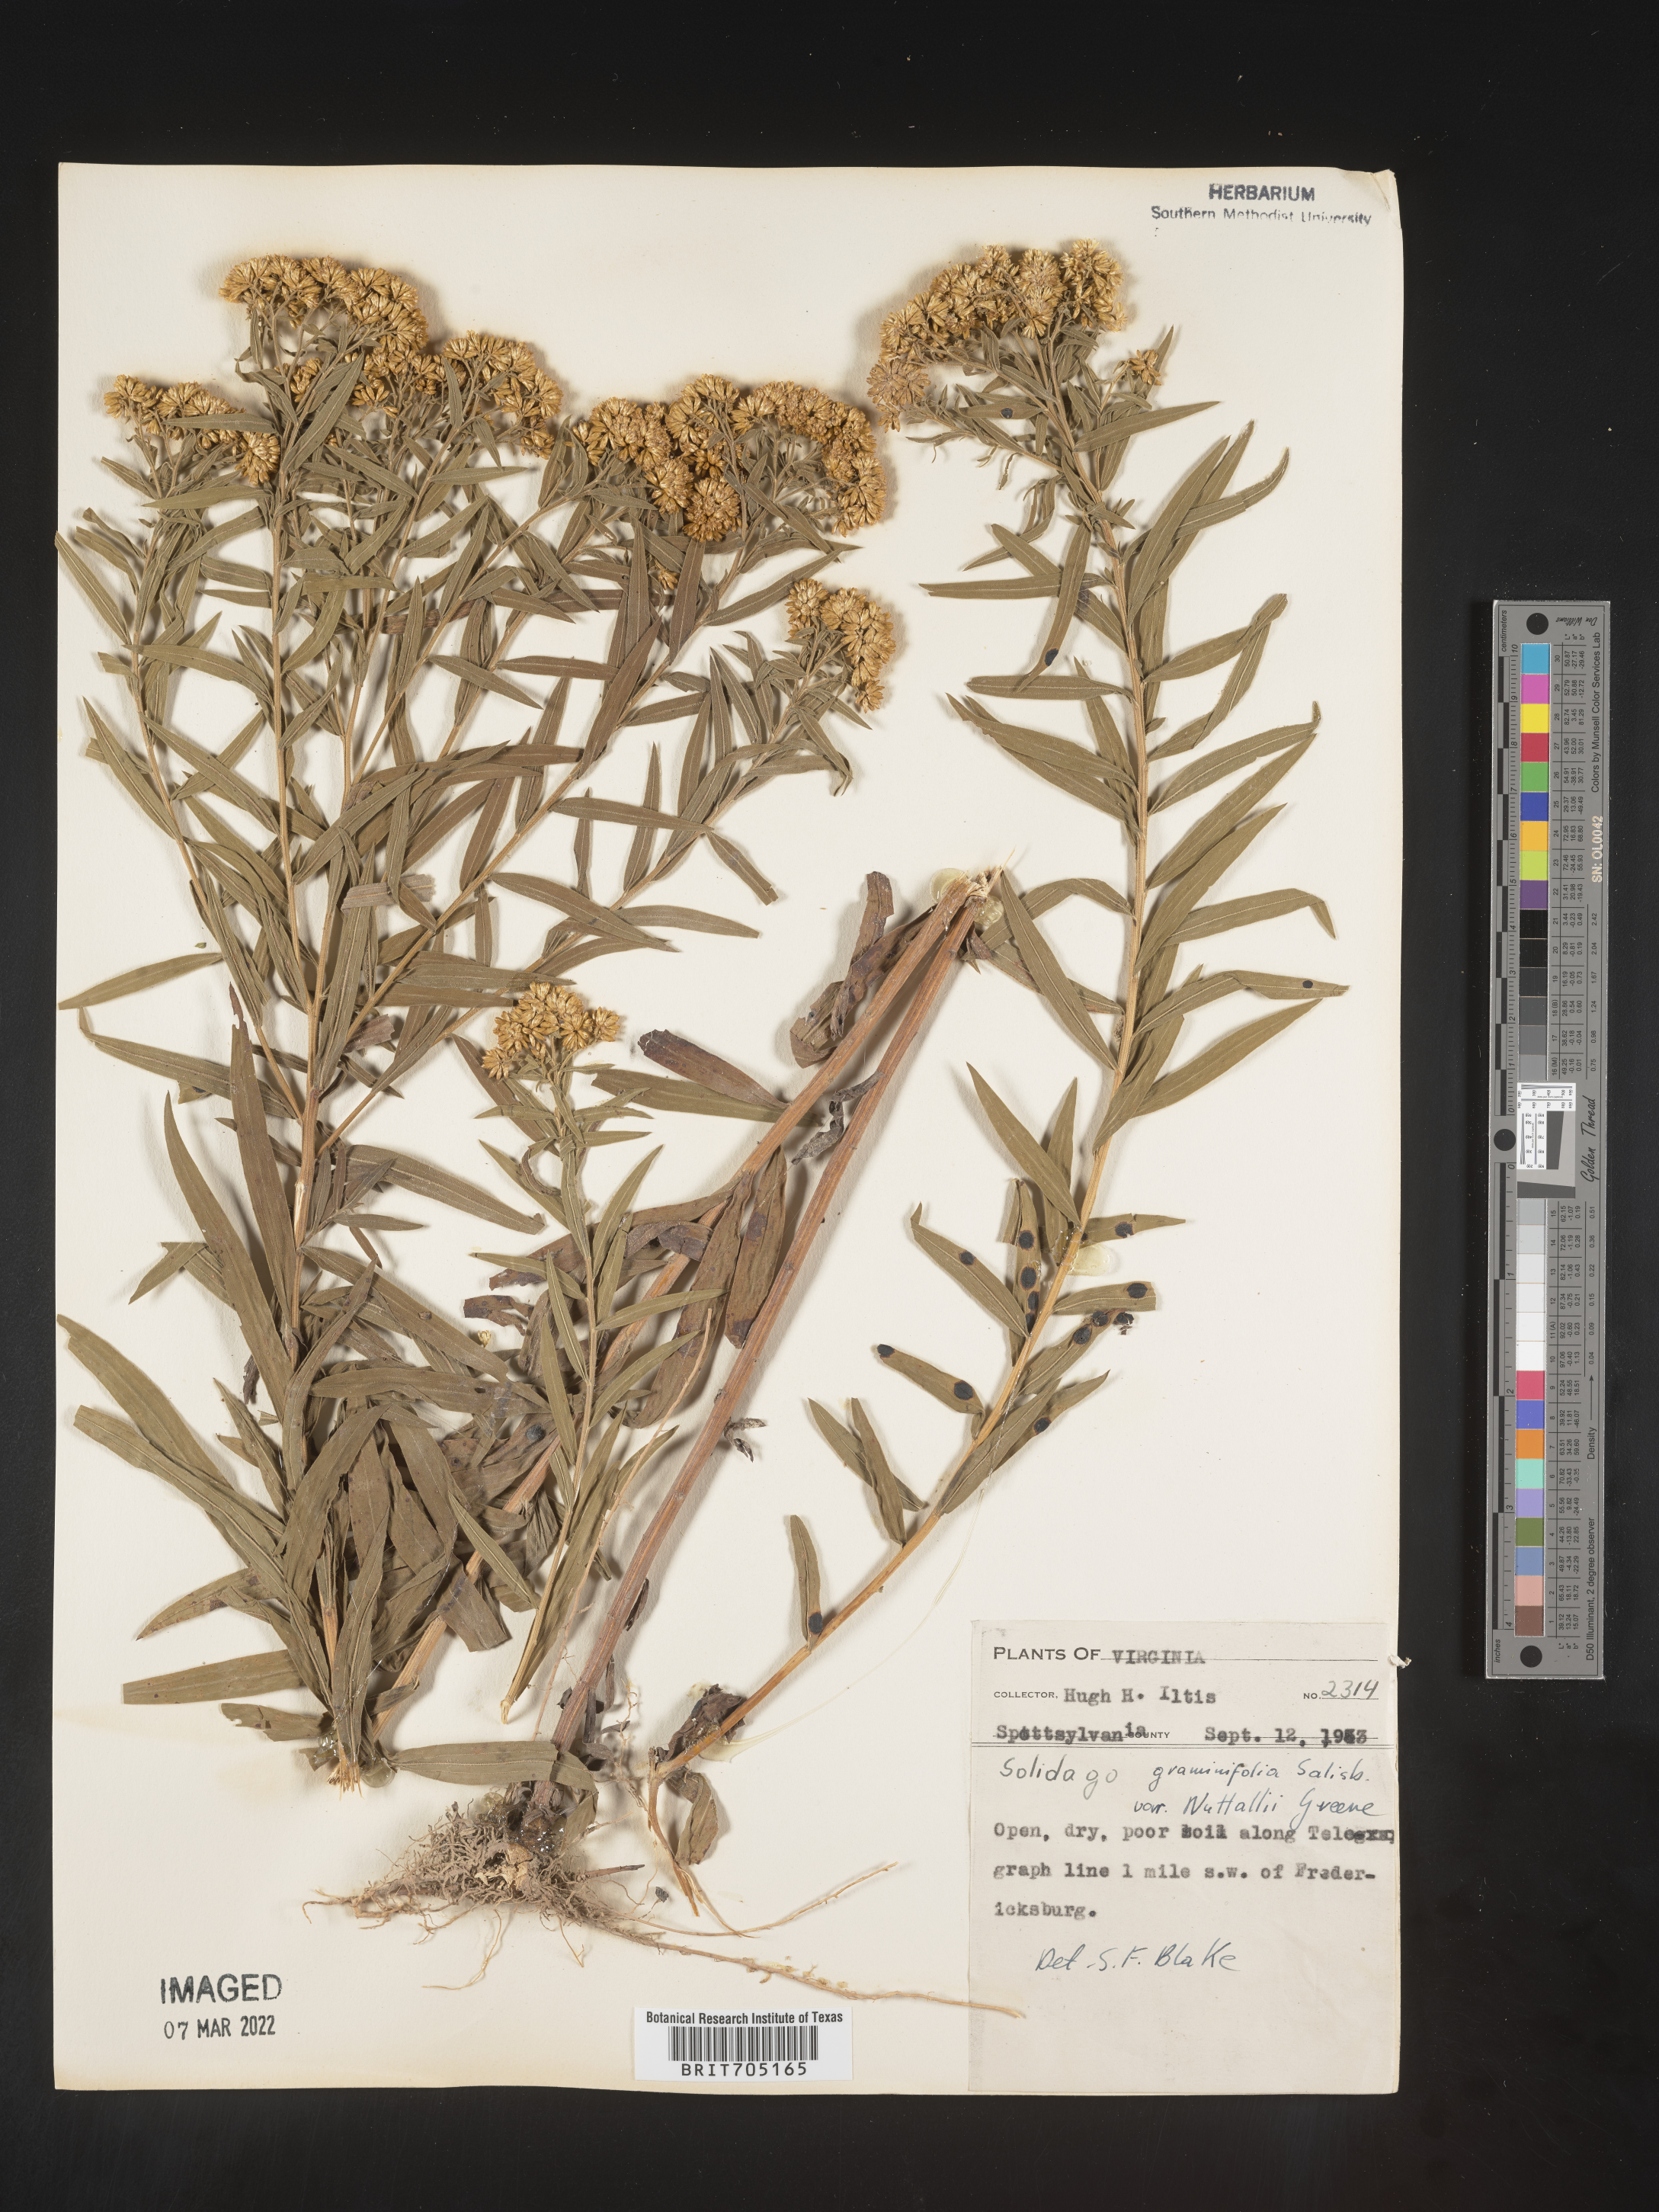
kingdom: Plantae
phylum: Tracheophyta
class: Magnoliopsida
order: Asterales
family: Asteraceae
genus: Euthamia
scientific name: Euthamia graminifolia
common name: Common goldentop
